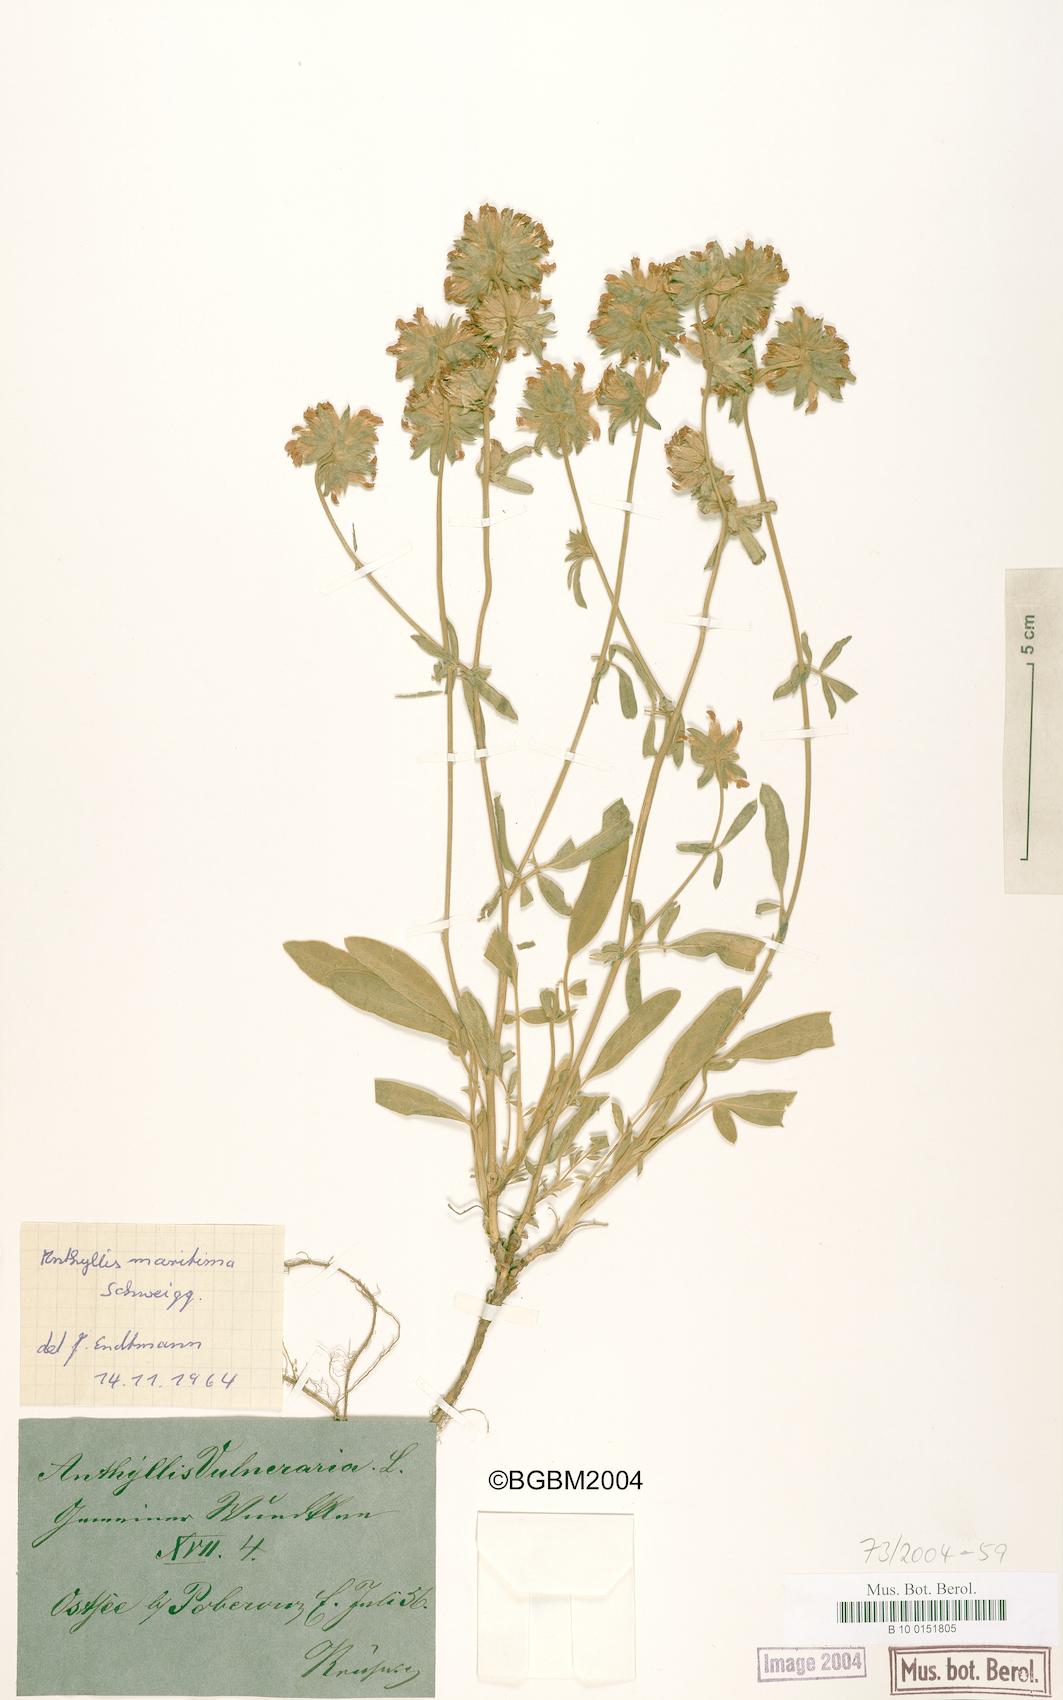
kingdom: Plantae
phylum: Tracheophyta
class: Magnoliopsida
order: Fabales
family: Fabaceae
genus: Anthyllis
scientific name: Anthyllis vulneraria
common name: Kidney vetch
